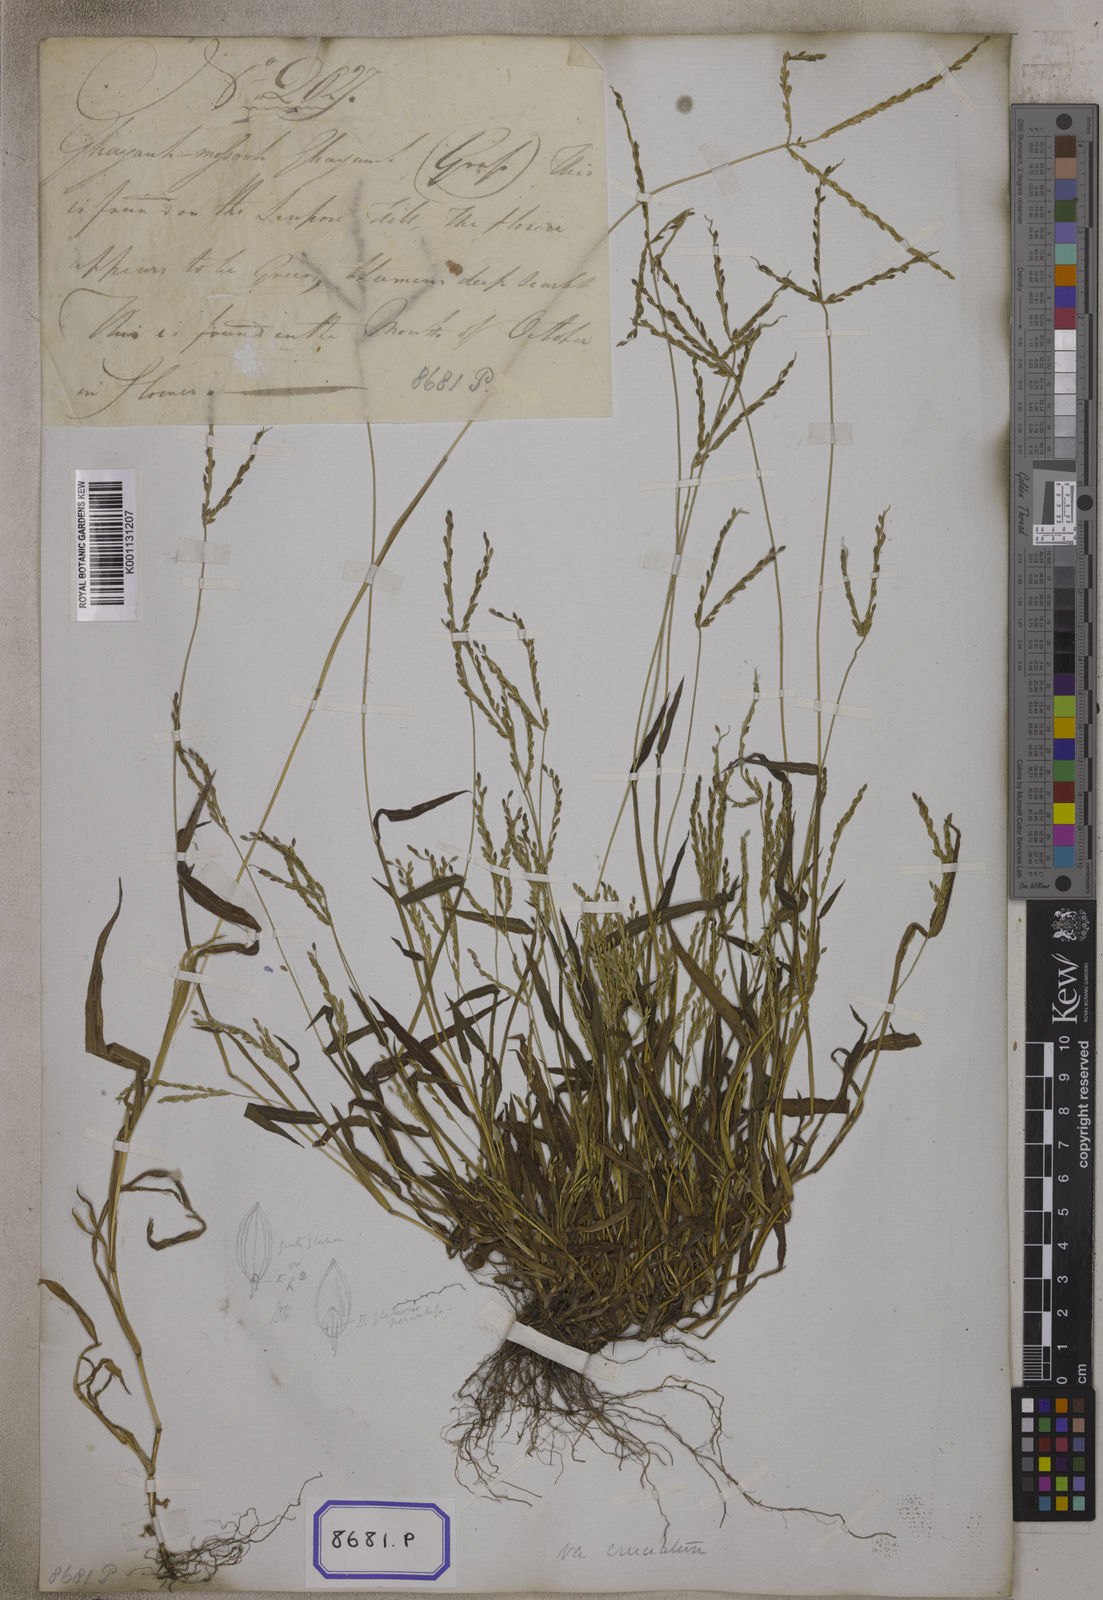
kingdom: Plantae
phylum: Tracheophyta
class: Liliopsida
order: Poales
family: Poaceae
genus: Digitaria
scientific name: Digitaria sanguinalis
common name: Hairy crabgrass
